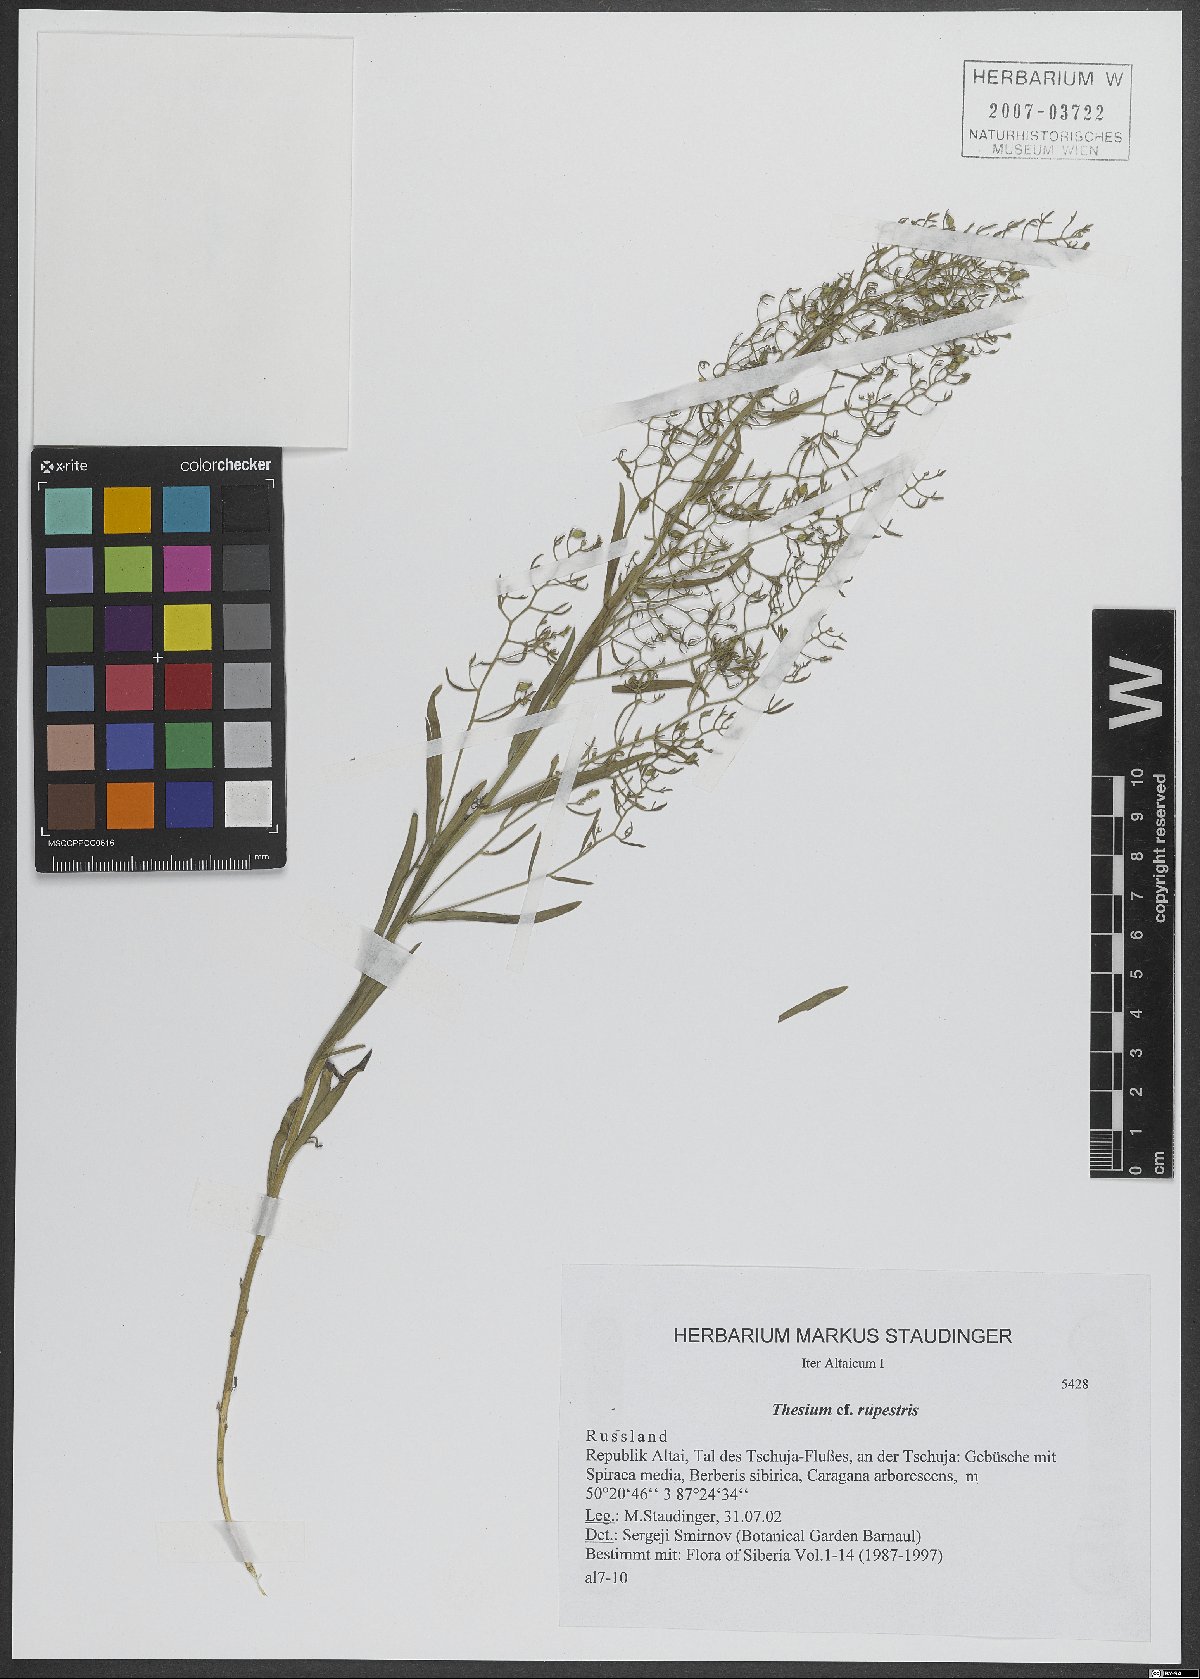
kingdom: Plantae
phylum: Tracheophyta
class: Magnoliopsida
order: Santalales
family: Thesiaceae
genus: Thesium
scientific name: Thesium rupestre
